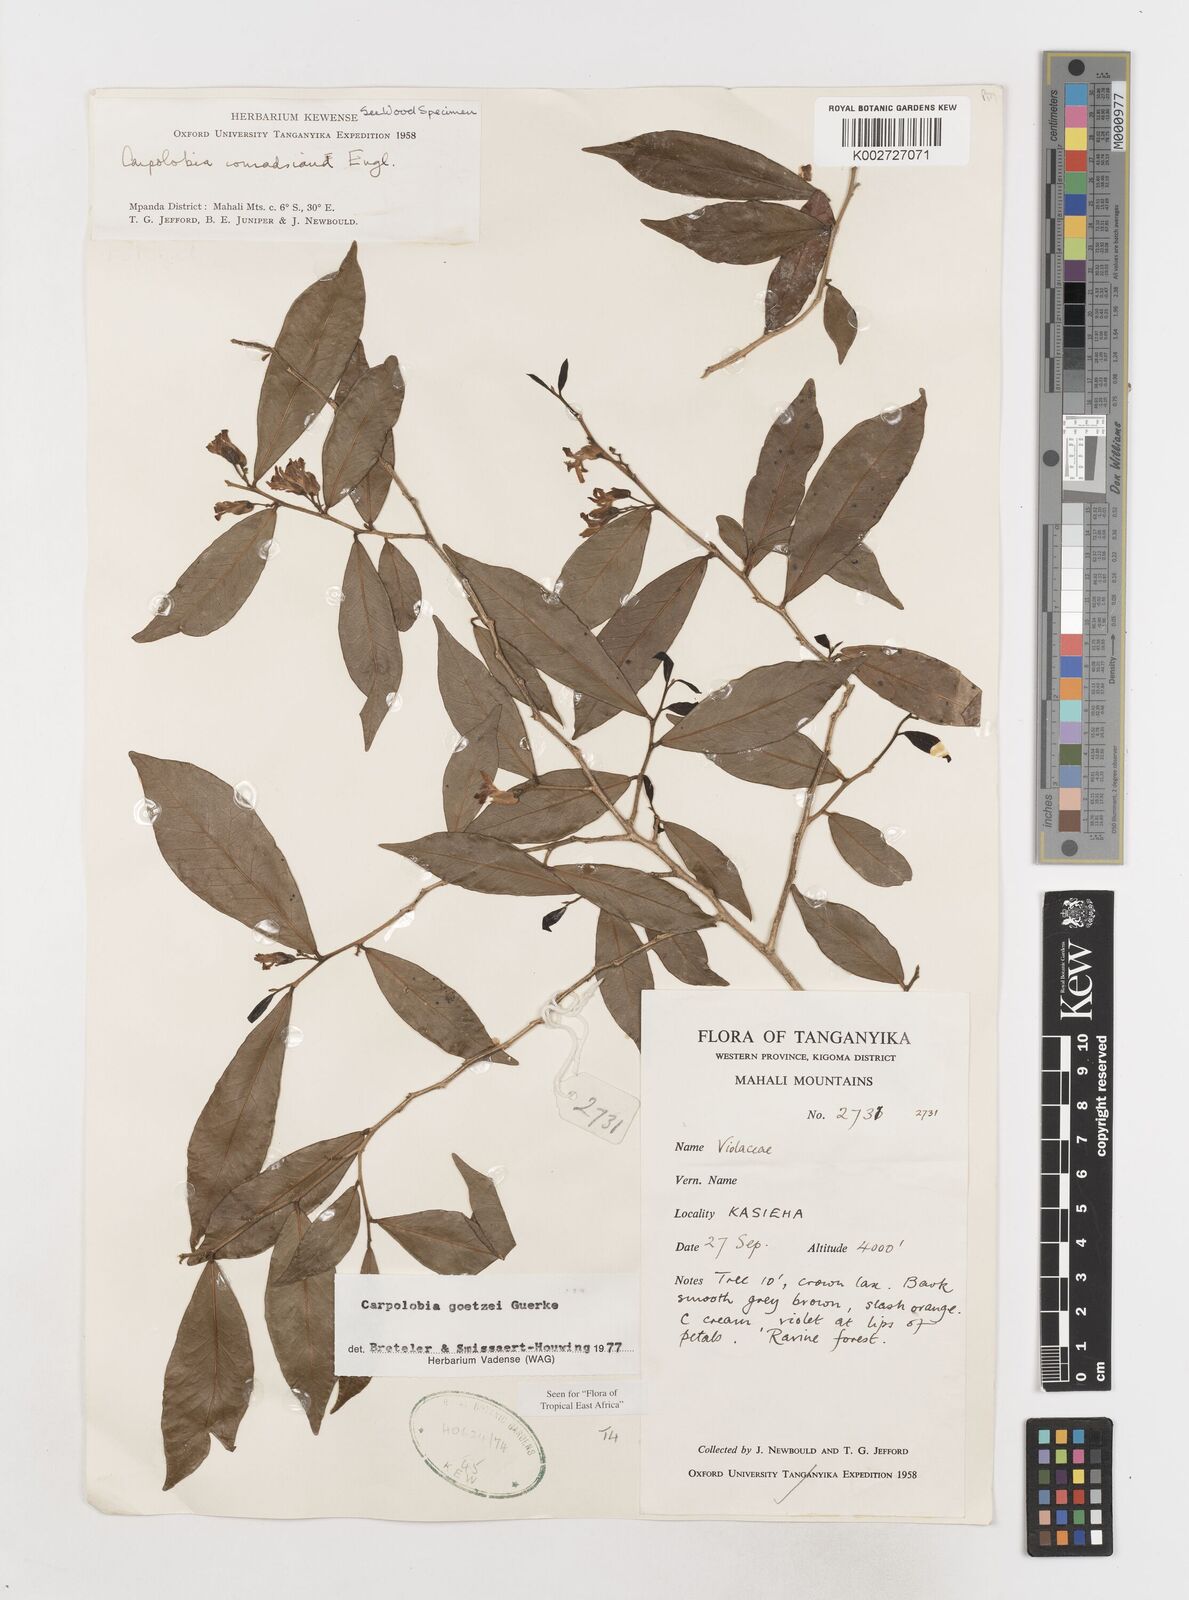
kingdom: Plantae
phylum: Tracheophyta
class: Magnoliopsida
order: Fabales
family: Polygalaceae
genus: Carpolobia
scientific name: Carpolobia goetzei
